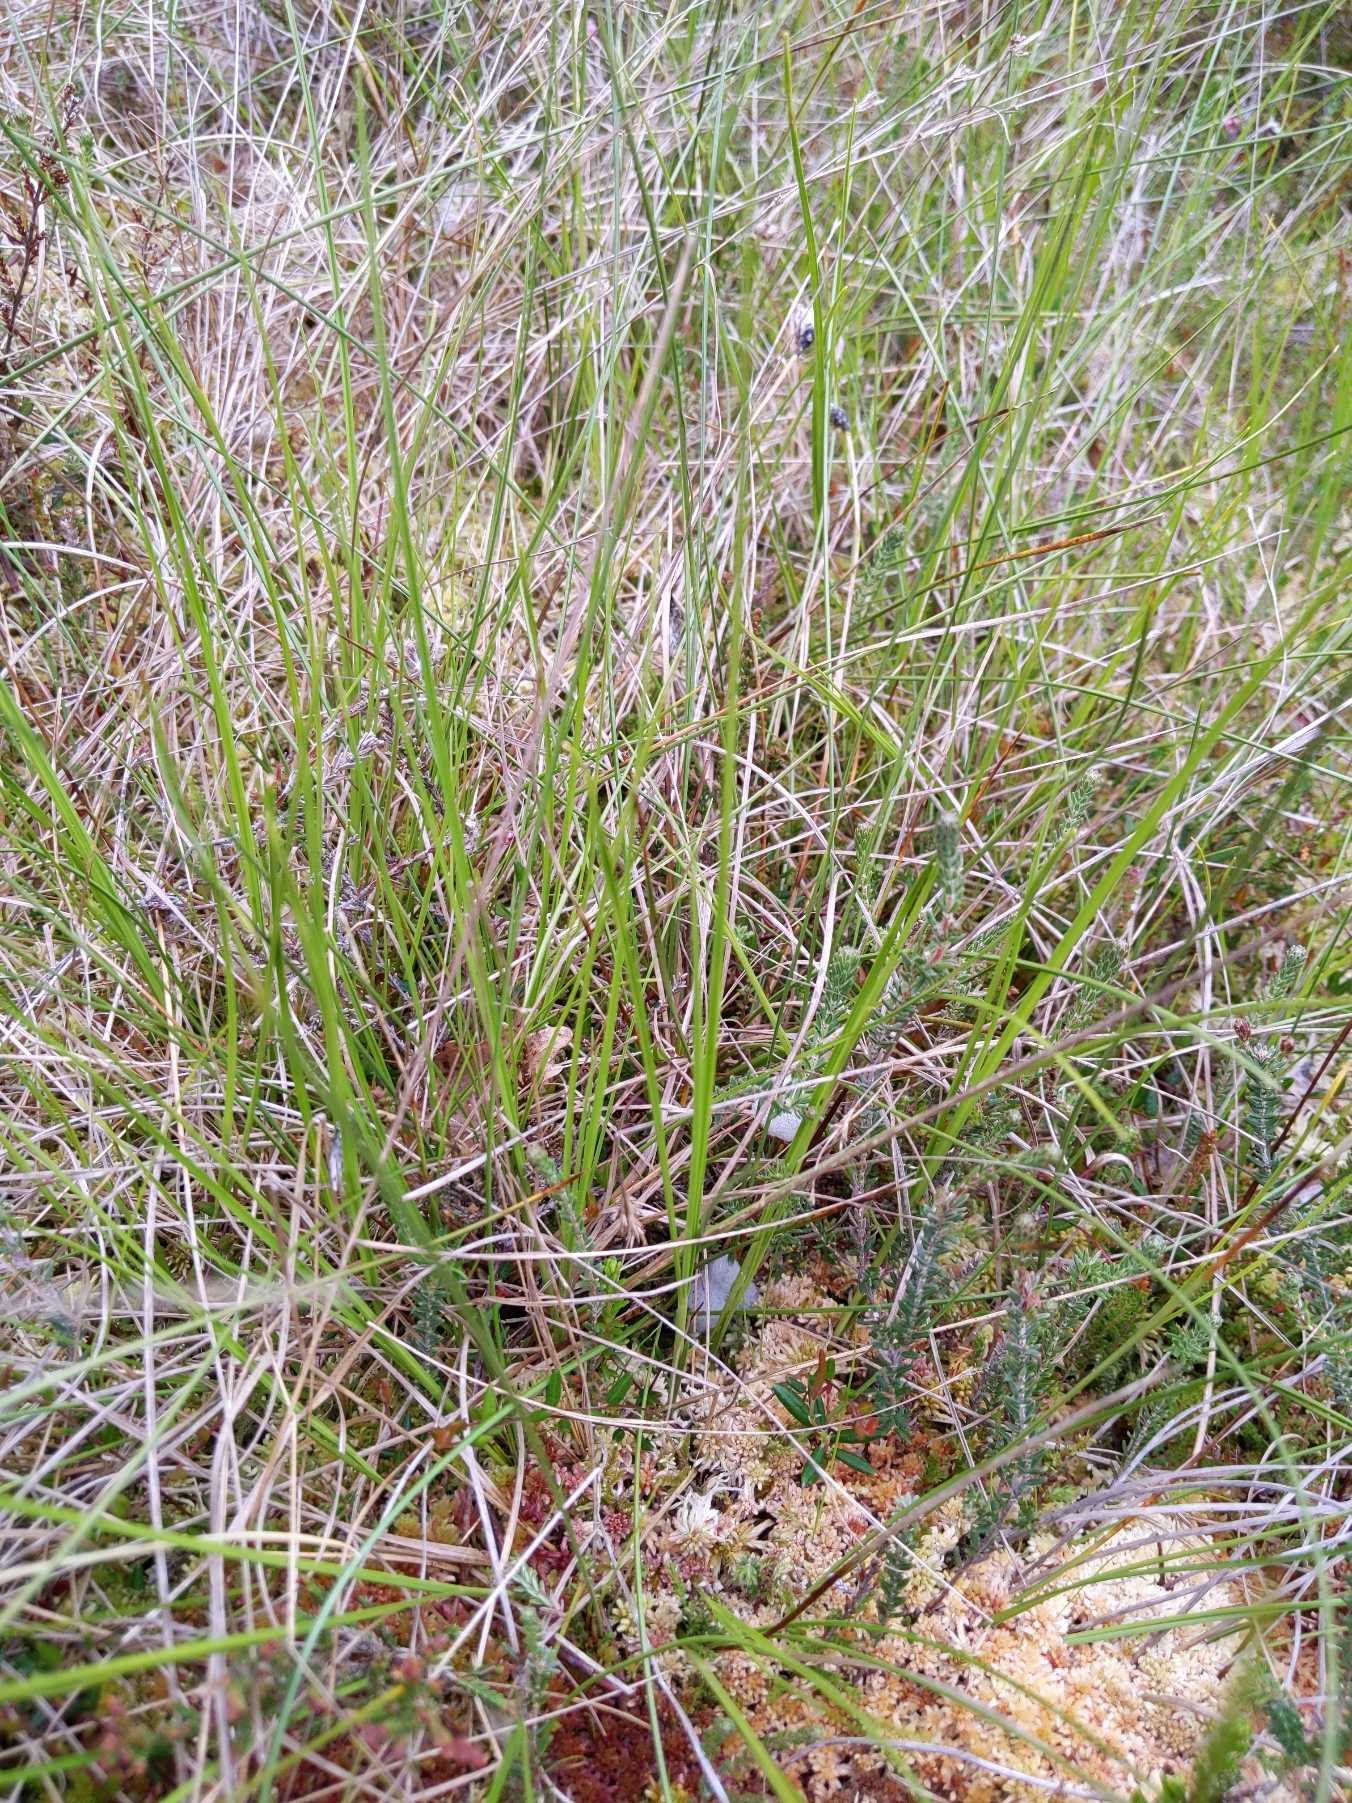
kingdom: Plantae
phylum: Tracheophyta
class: Liliopsida
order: Poales
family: Cyperaceae
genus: Rhynchospora
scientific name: Rhynchospora alba
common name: Hvid næbfrø
